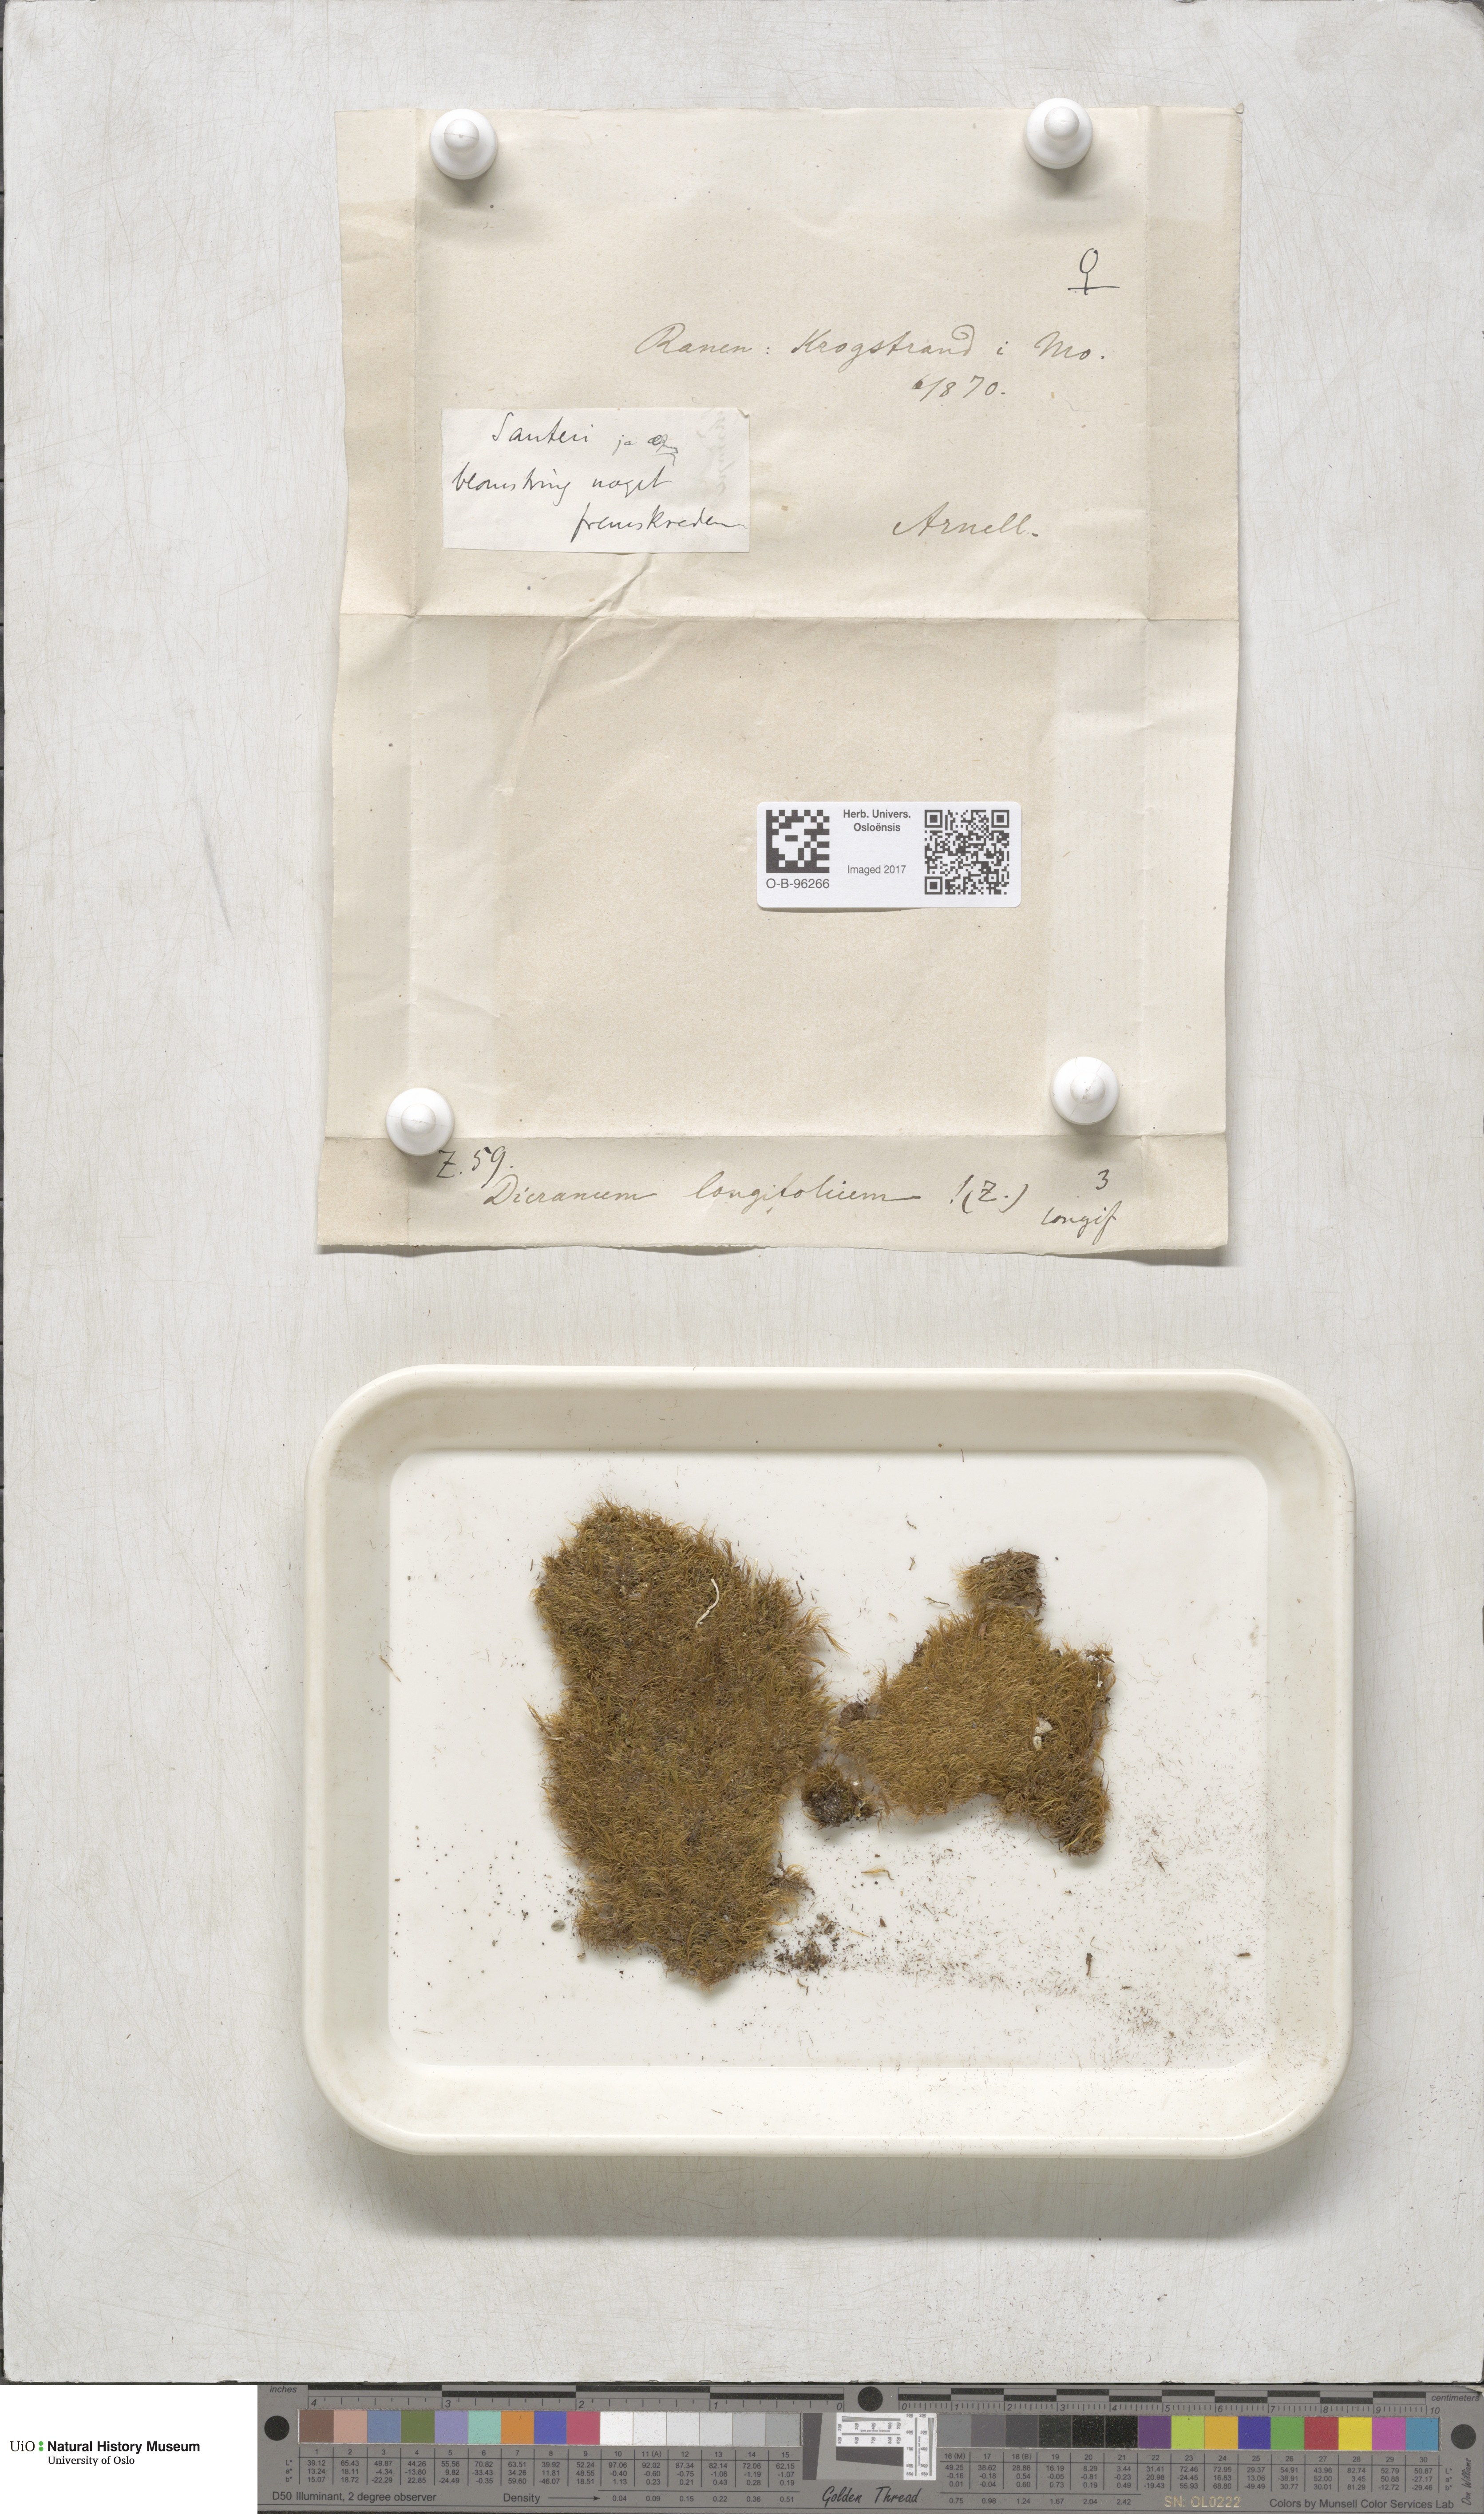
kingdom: Plantae
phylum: Bryophyta
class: Bryopsida
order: Dicranales
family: Dicranaceae
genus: Paraleucobryum
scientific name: Paraleucobryum longifolium
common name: Long-leaved fork moss
